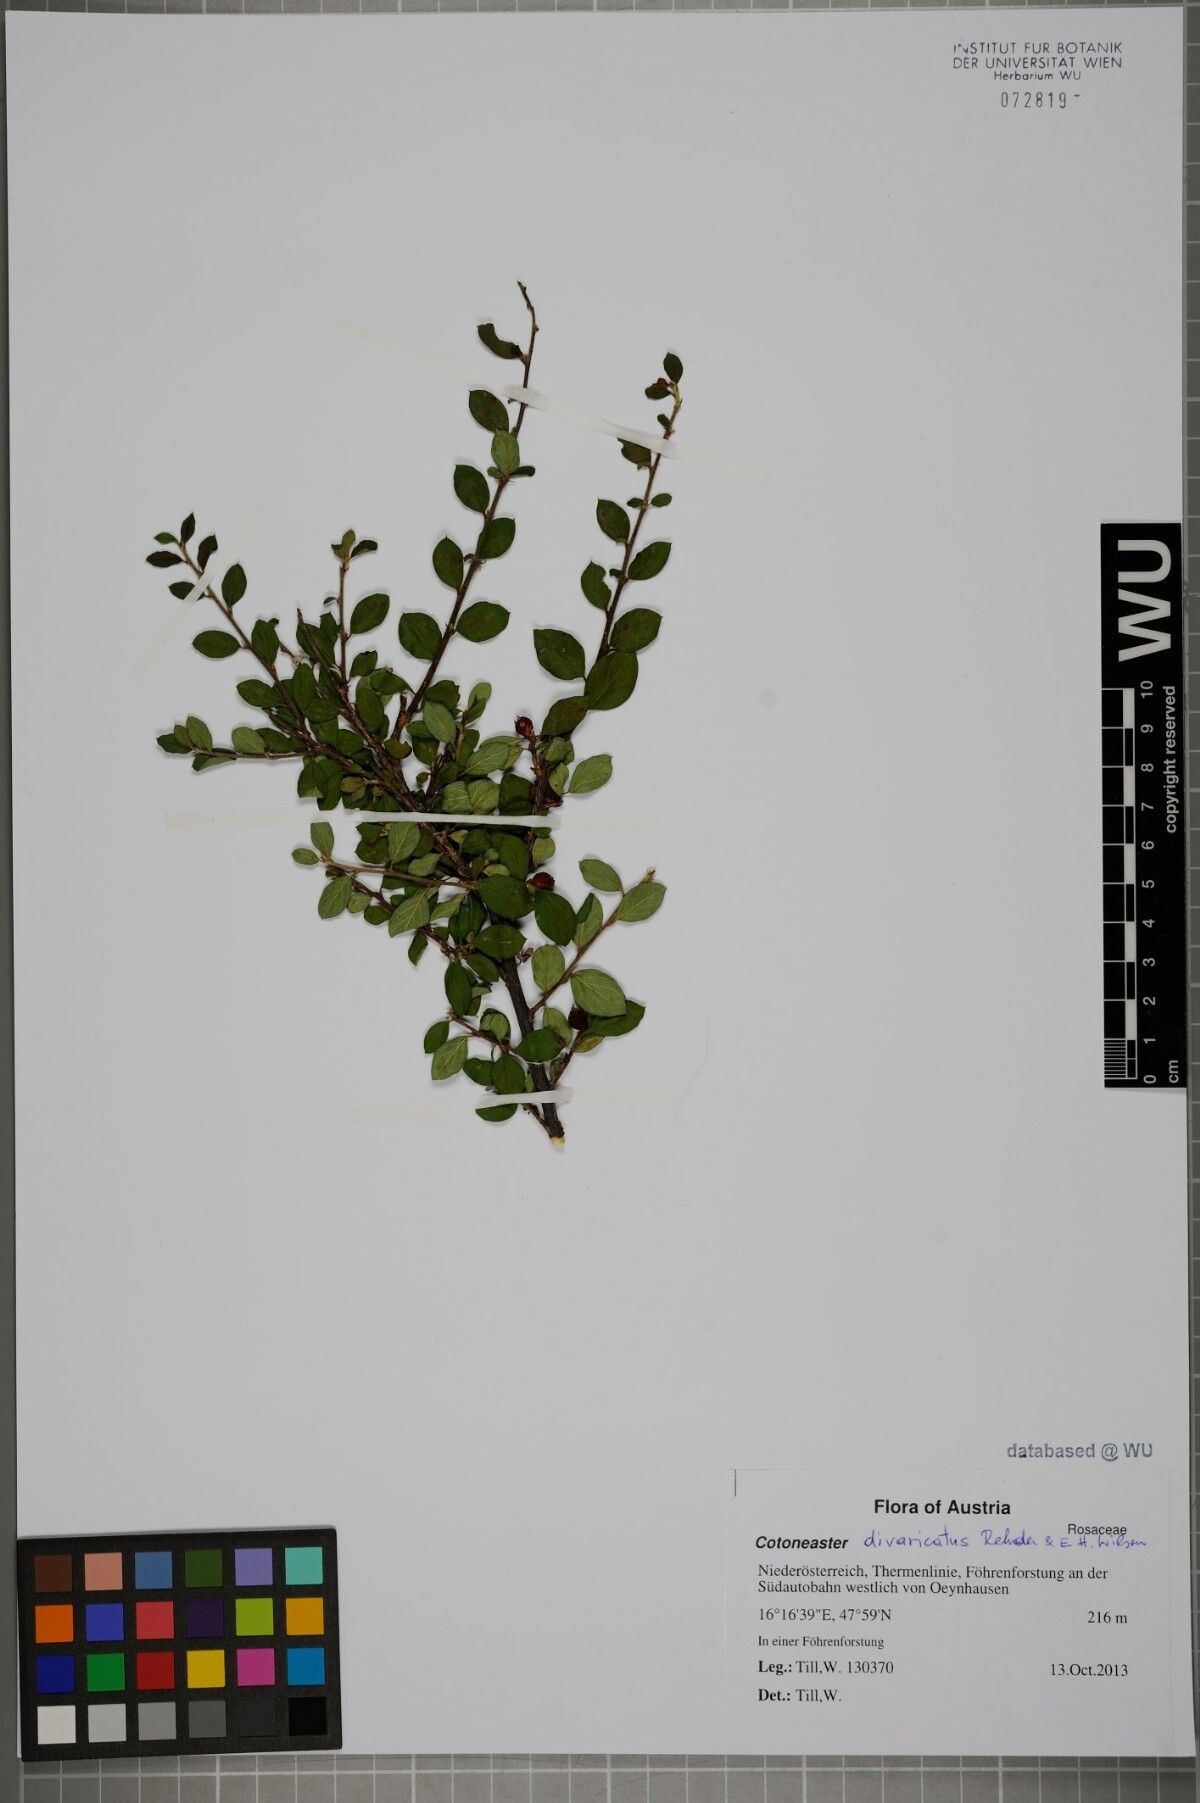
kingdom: Plantae
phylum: Tracheophyta
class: Magnoliopsida
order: Rosales
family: Rosaceae
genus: Cotoneaster
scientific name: Cotoneaster divaricatus
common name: Spreading cotoneaster
